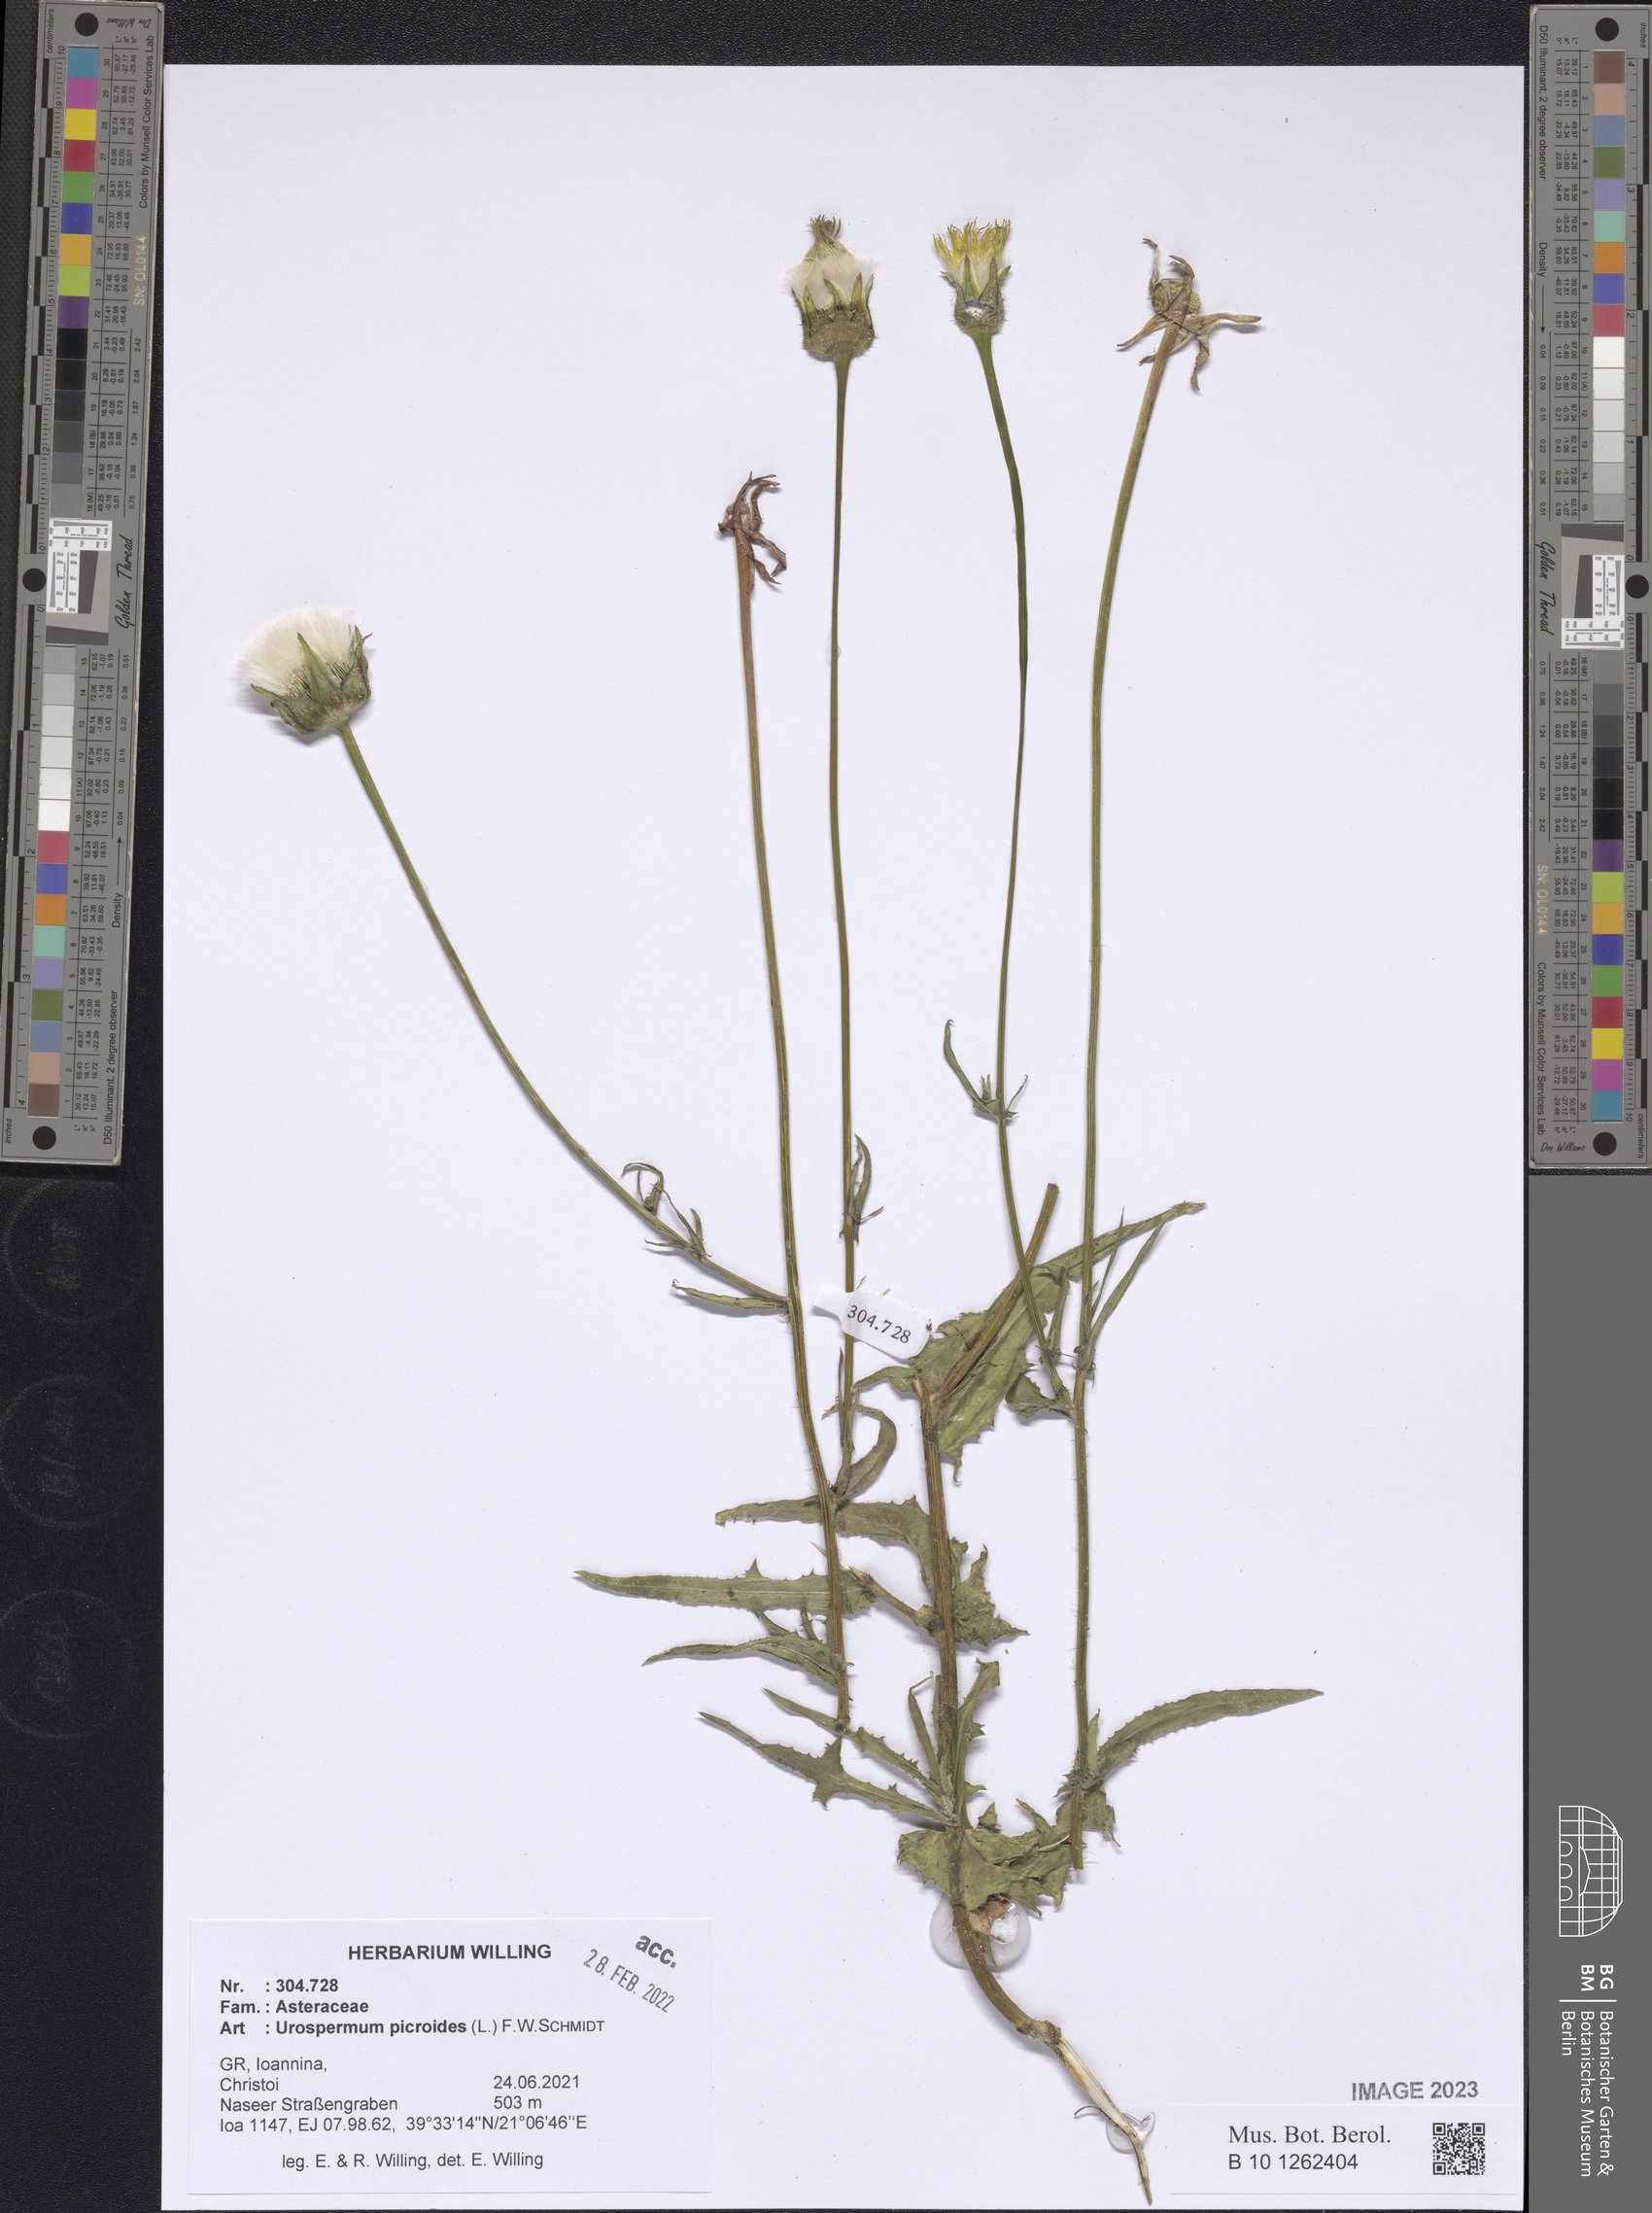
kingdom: Plantae
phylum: Tracheophyta
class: Magnoliopsida
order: Asterales
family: Asteraceae
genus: Urospermum
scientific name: Urospermum picroides
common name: False hawkbit
